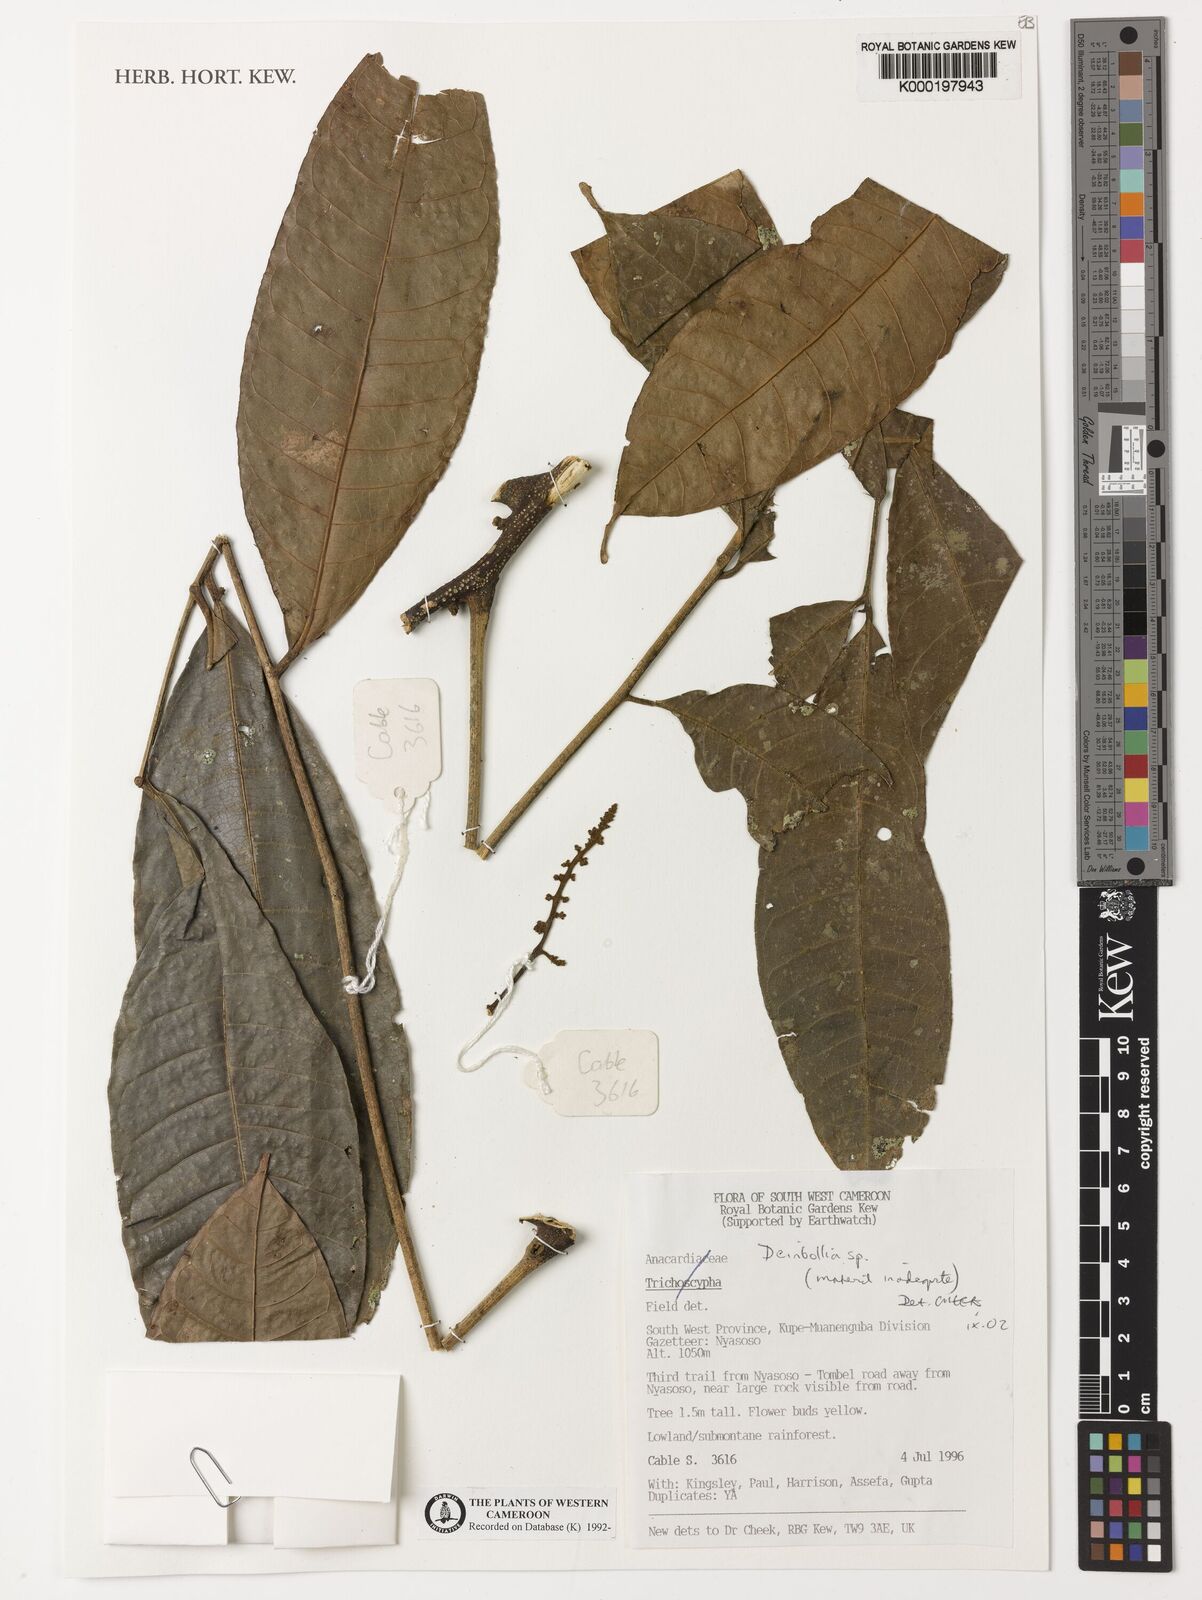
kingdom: Plantae
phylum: Tracheophyta
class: Magnoliopsida
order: Sapindales
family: Sapindaceae
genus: Deinbollia
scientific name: Deinbollia
